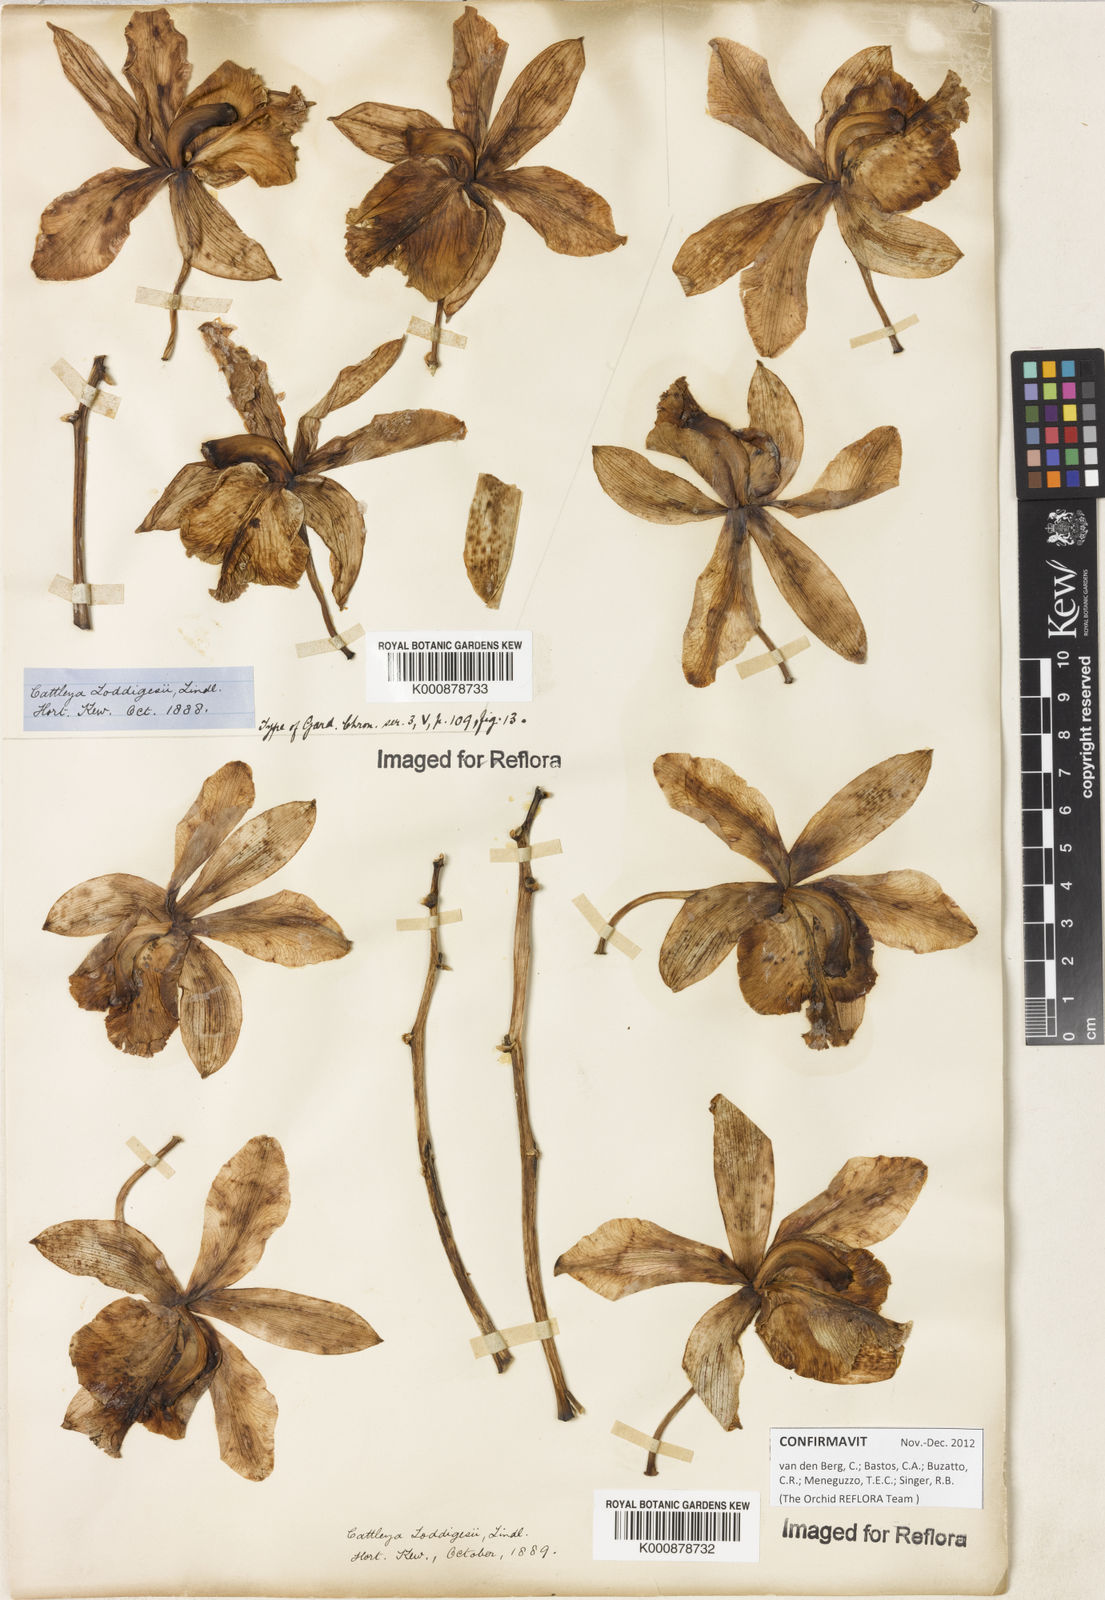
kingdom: Plantae
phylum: Tracheophyta
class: Liliopsida
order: Asparagales
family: Orchidaceae
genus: Cattleya
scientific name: Cattleya loddigesii
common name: Loddiges's cattleya
